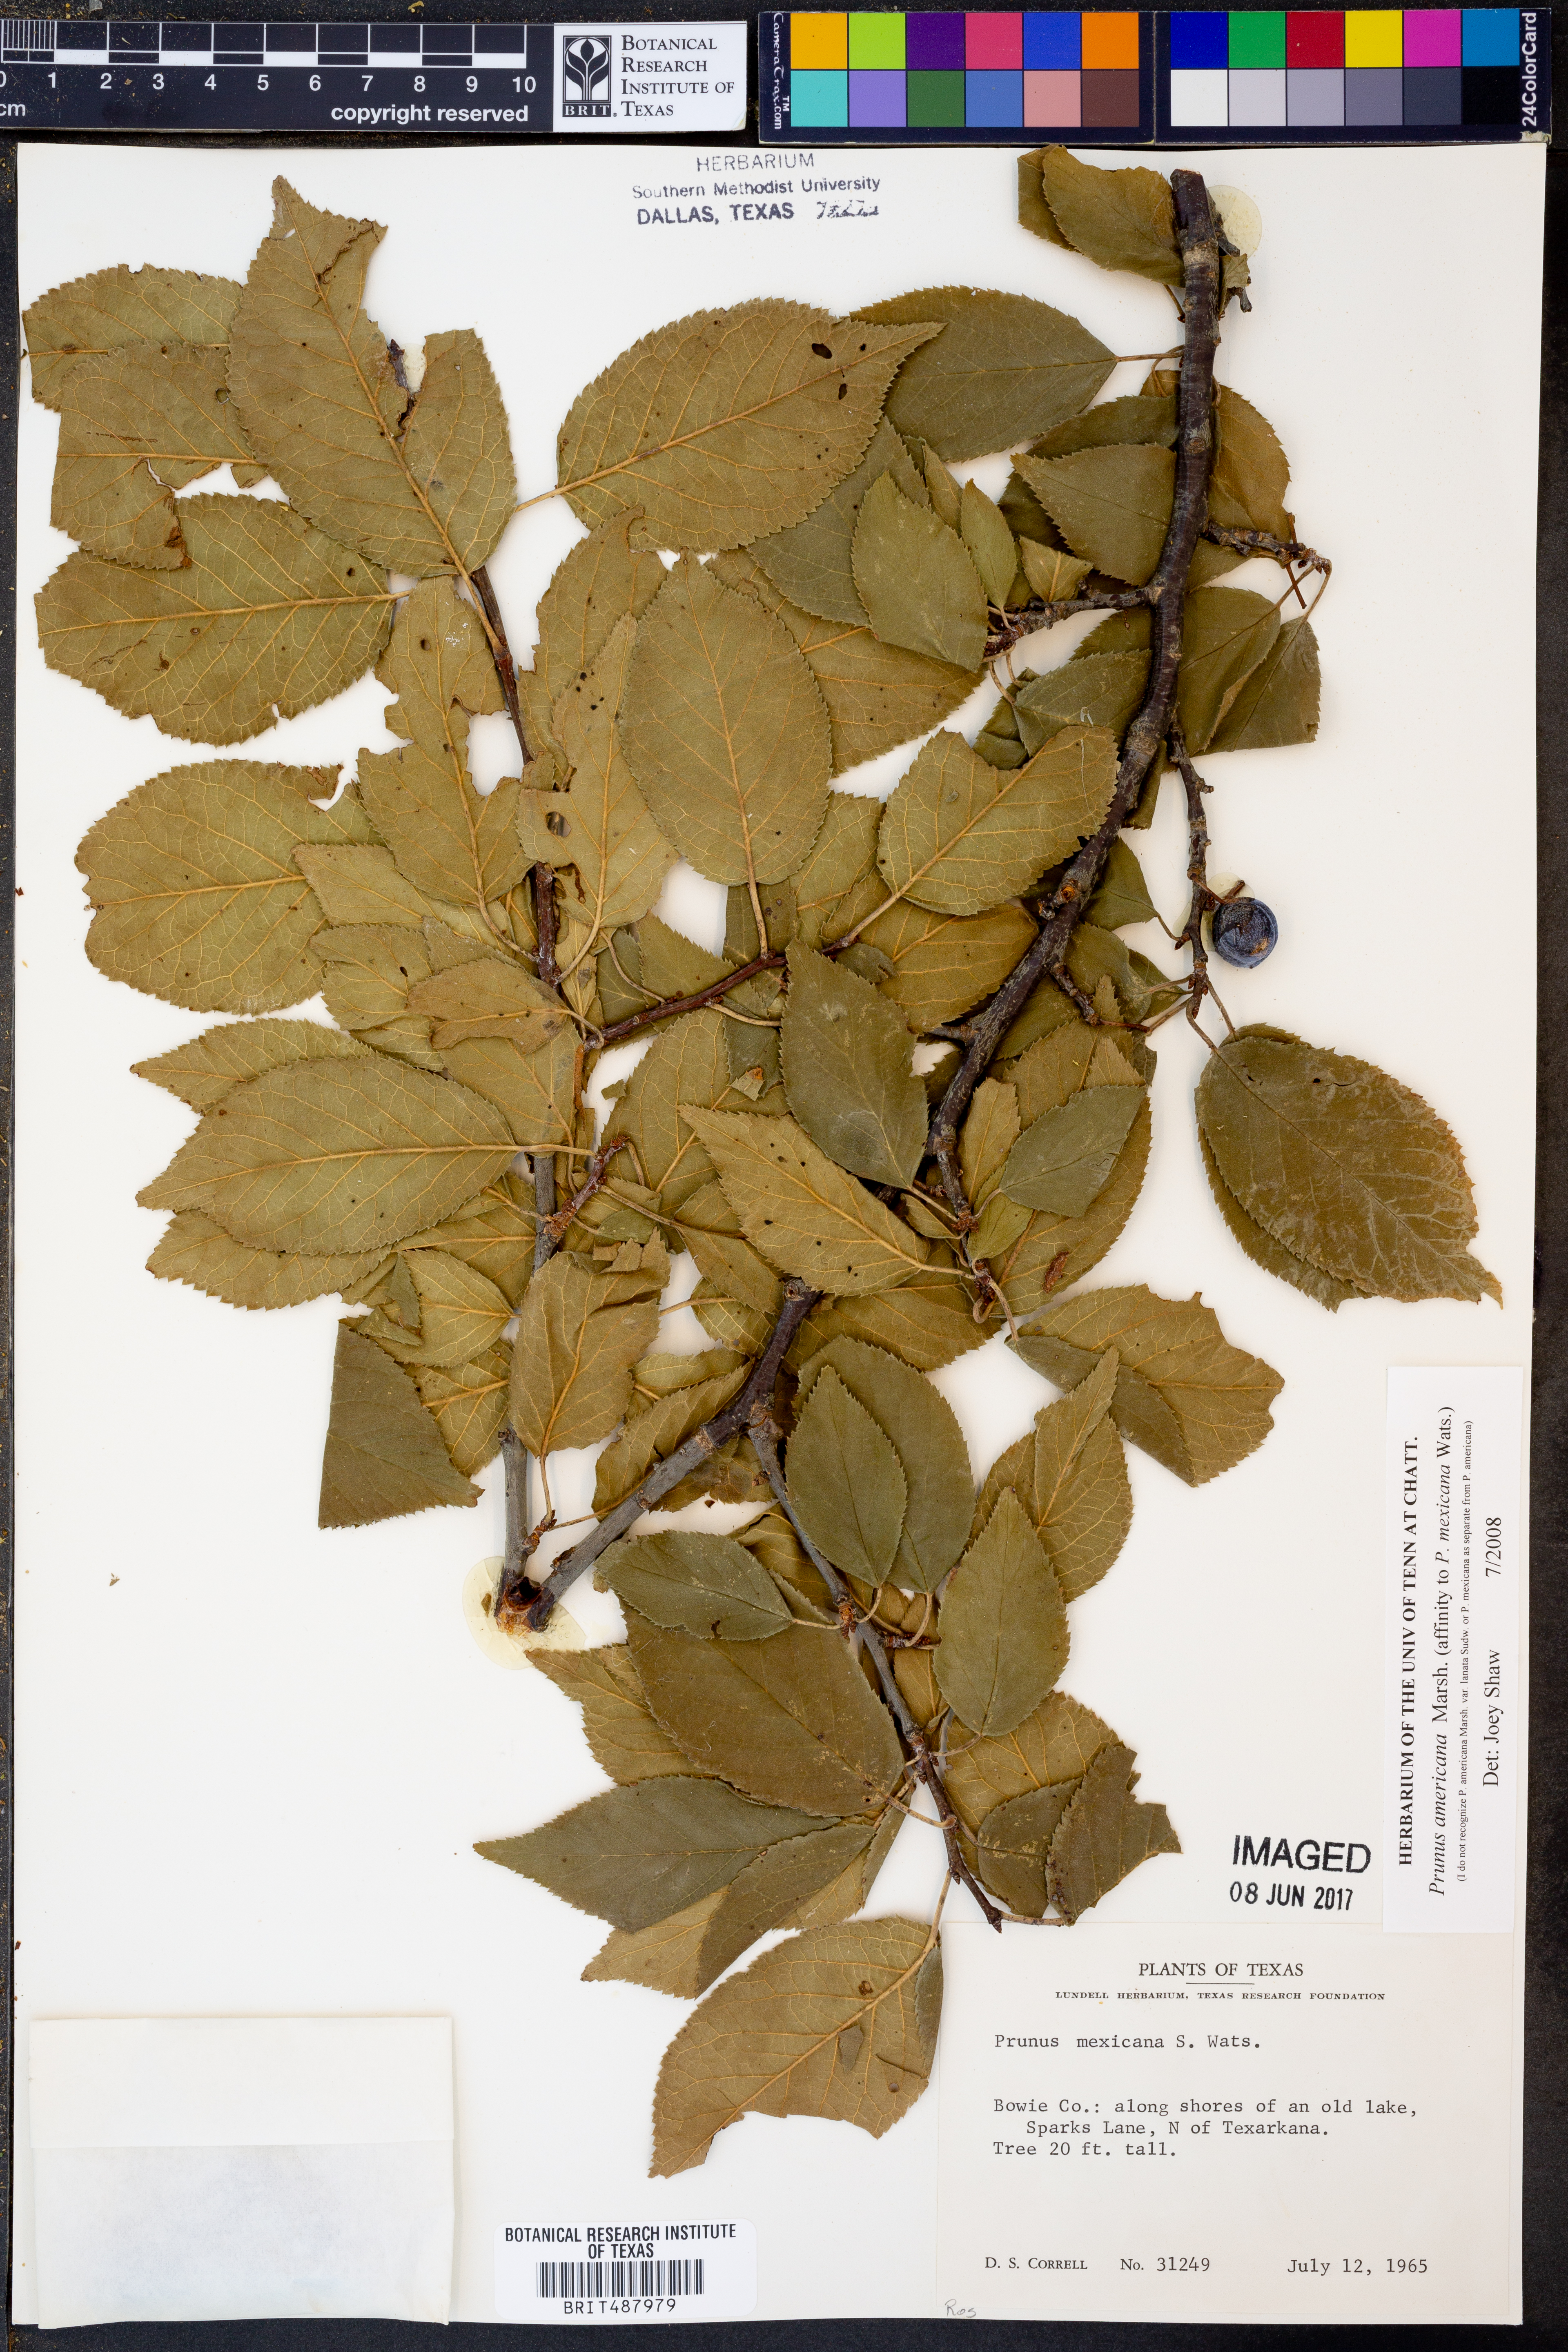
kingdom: Plantae
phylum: Tracheophyta
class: Magnoliopsida
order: Rosales
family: Rosaceae
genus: Prunus
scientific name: Prunus mexicana
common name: Mexican plum
